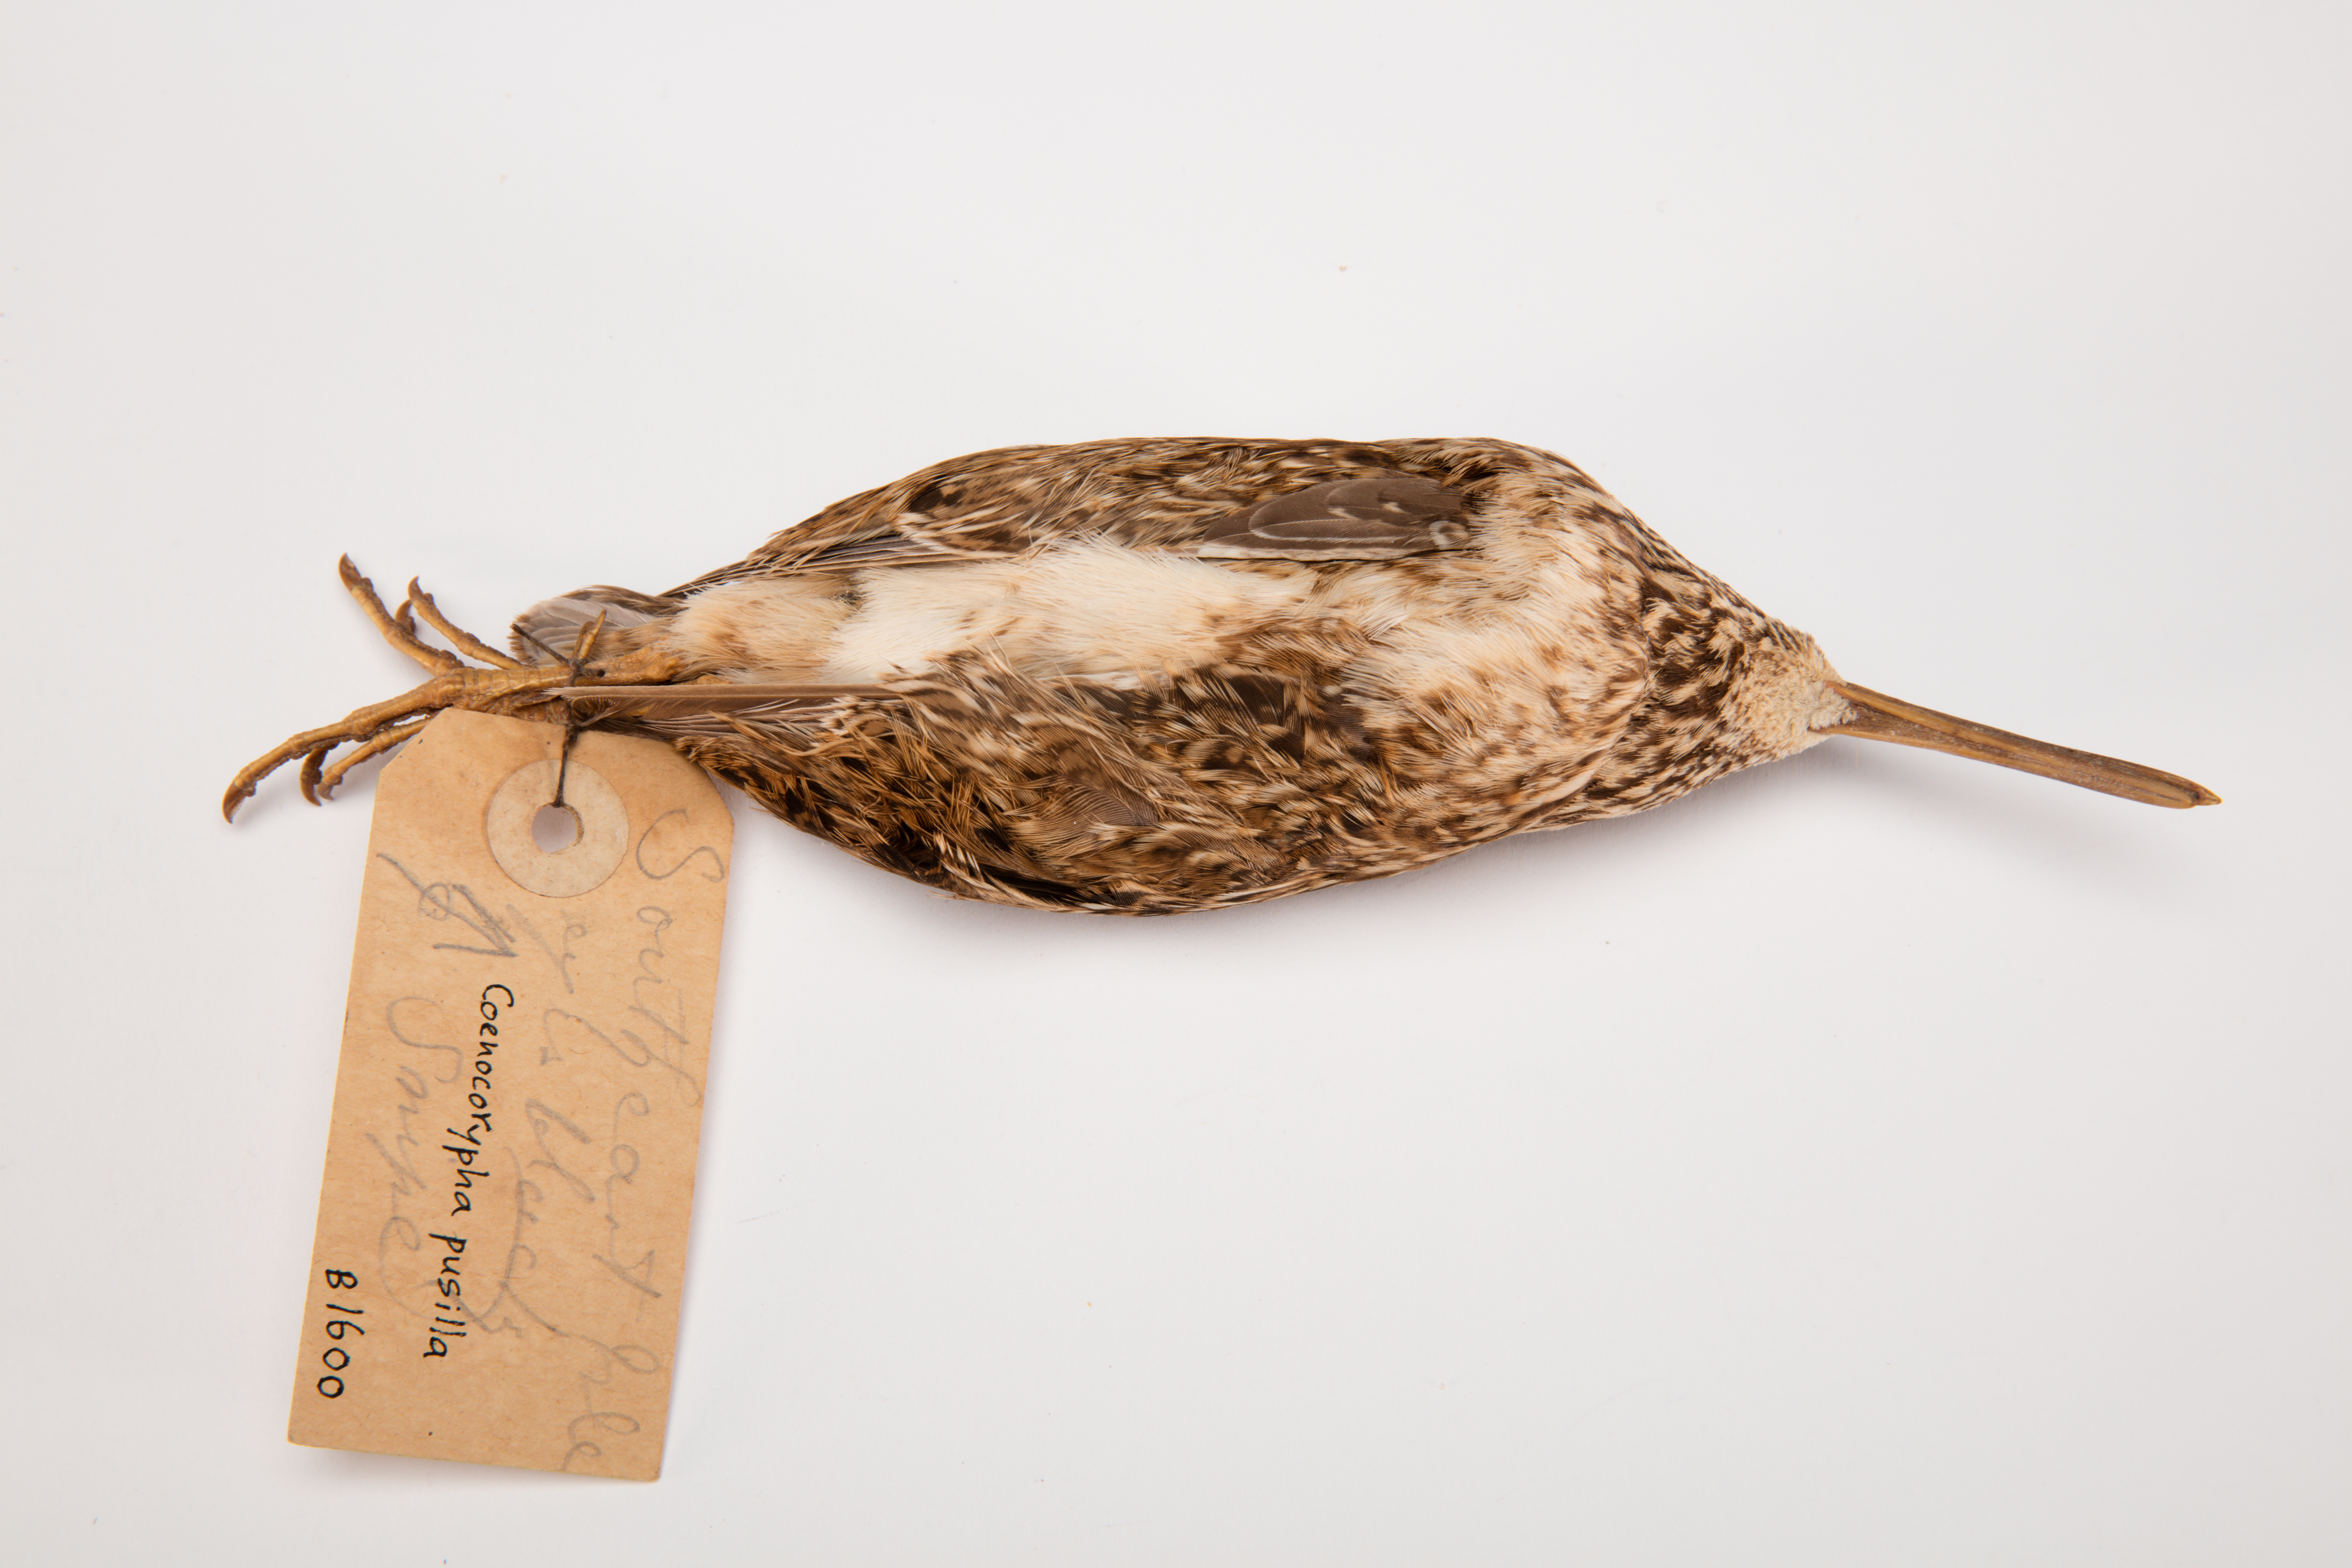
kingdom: Animalia
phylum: Chordata
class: Aves
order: Charadriiformes
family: Scolopacidae
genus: Coenocorypha
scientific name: Coenocorypha pusilla
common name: Chatham snipe
